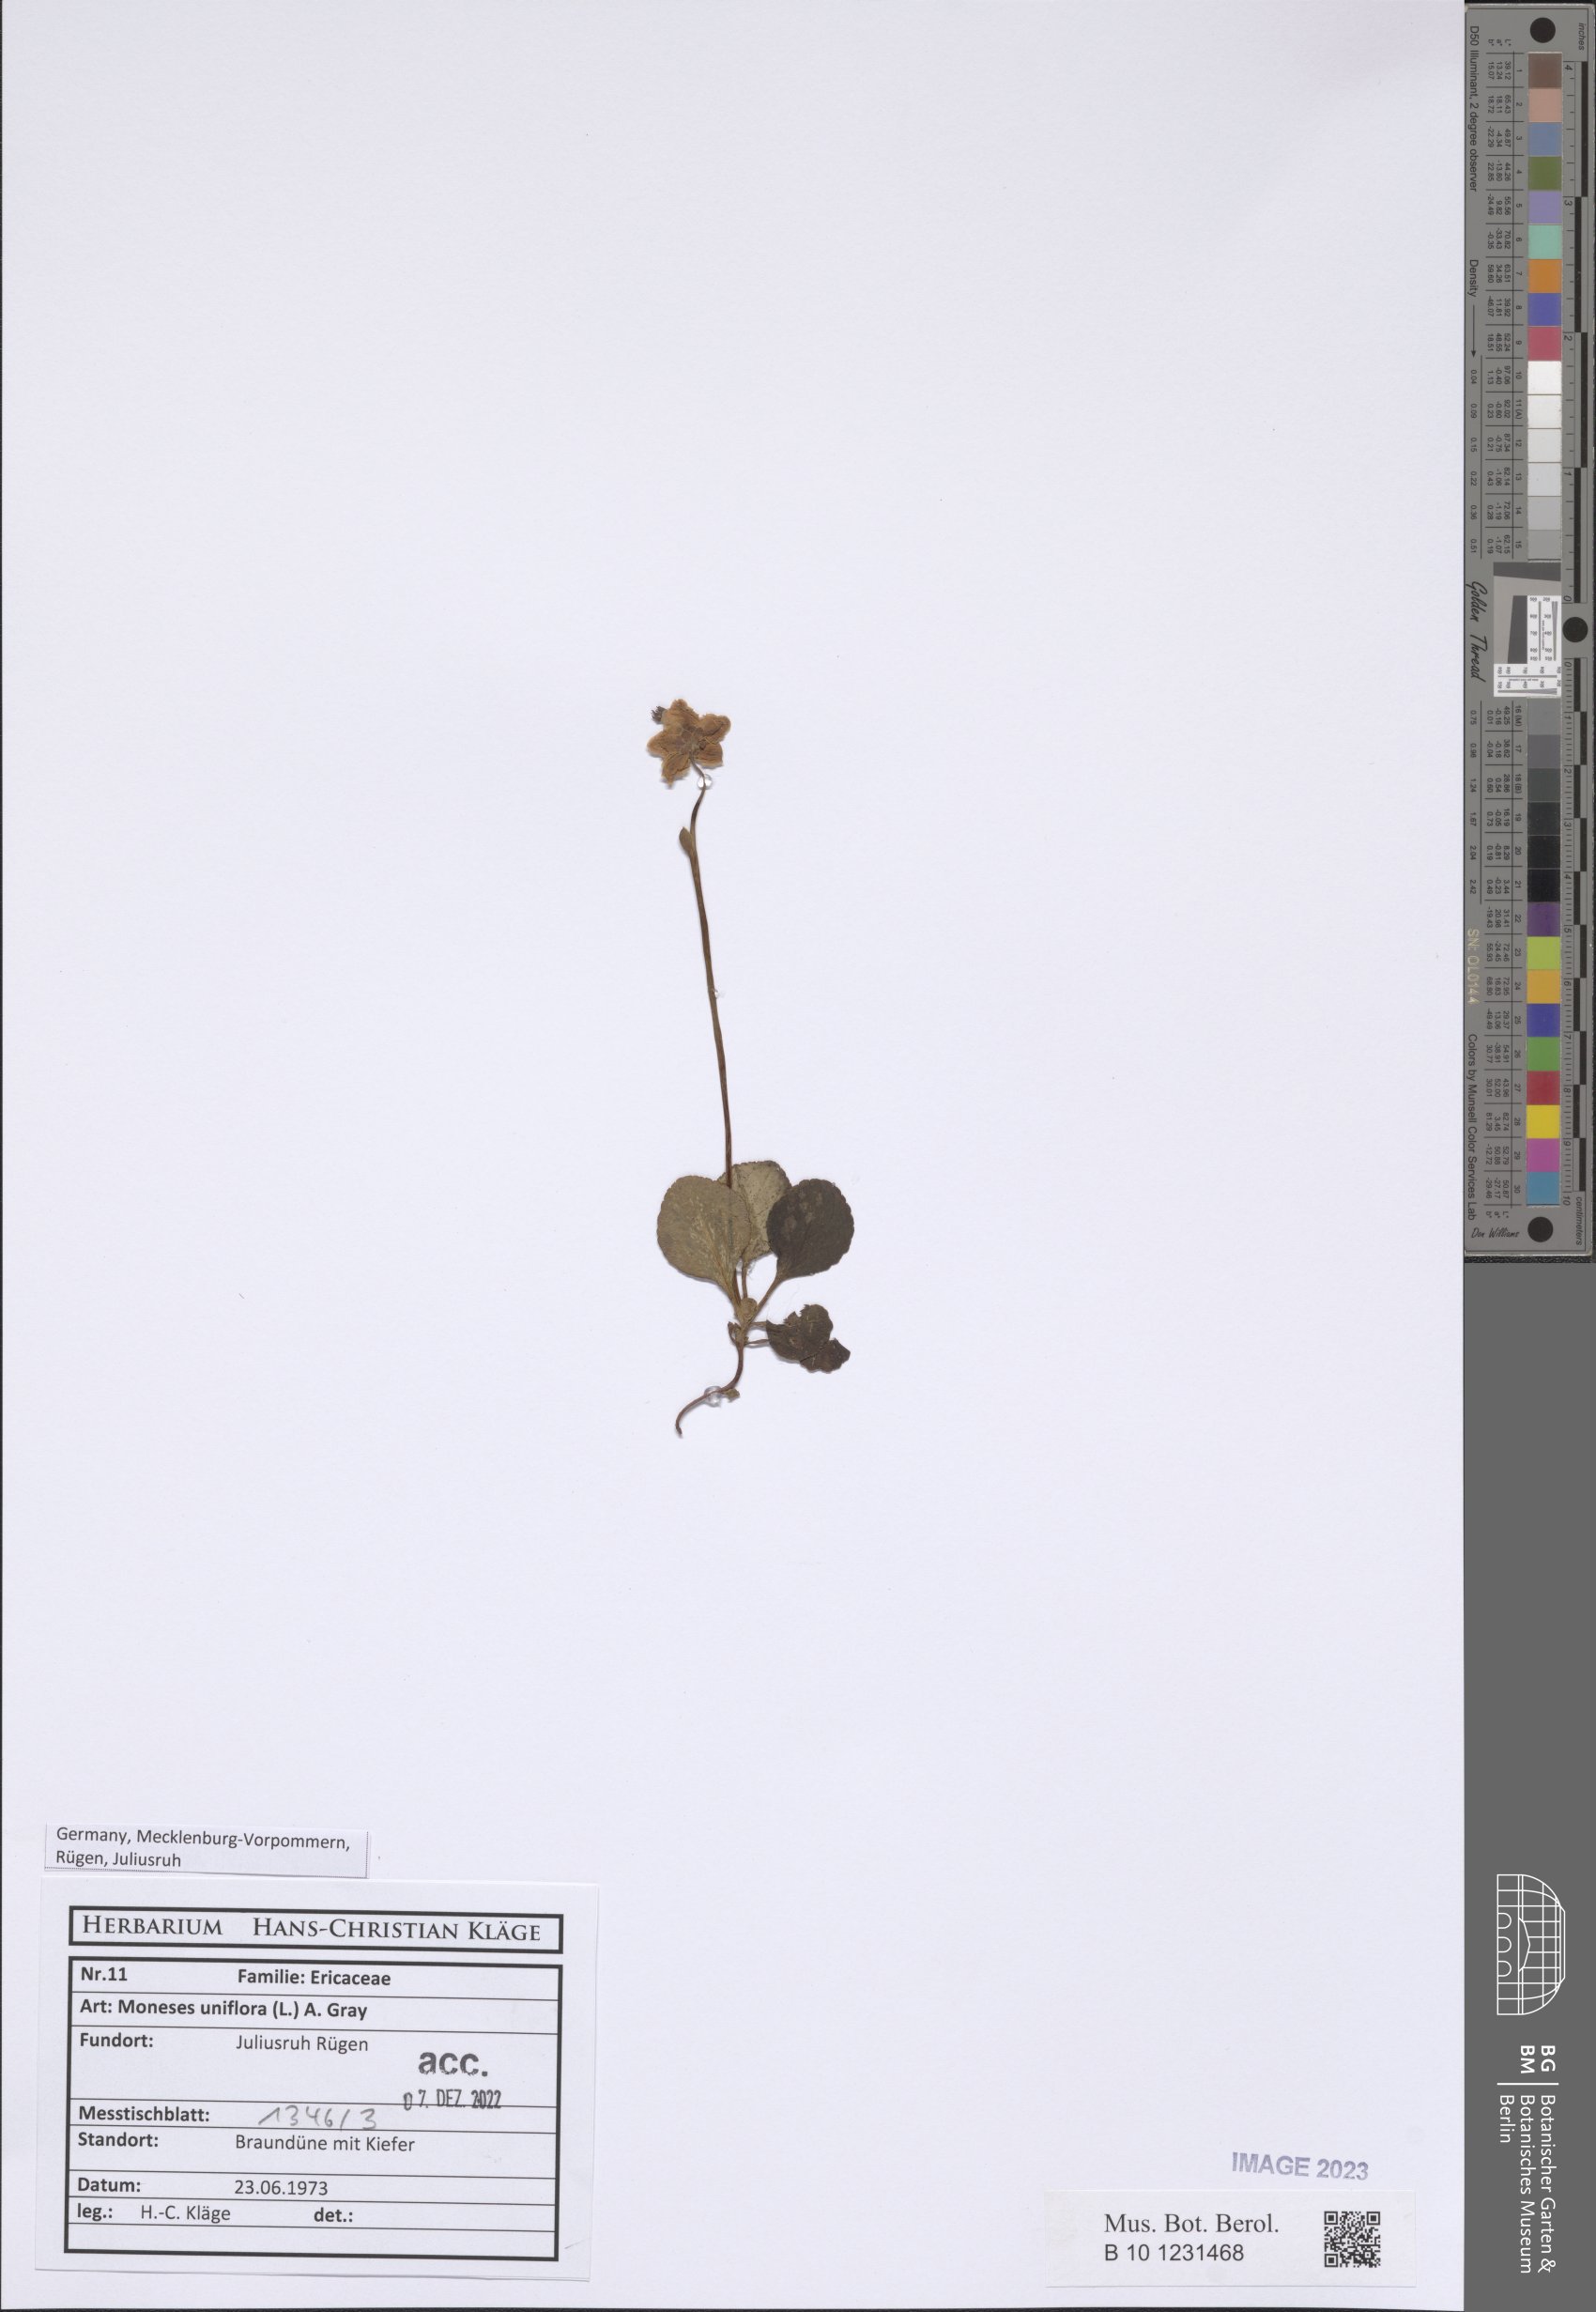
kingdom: Plantae
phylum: Tracheophyta
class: Magnoliopsida
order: Ericales
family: Ericaceae
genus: Moneses
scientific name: Moneses uniflora
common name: One-flowered wintergreen
